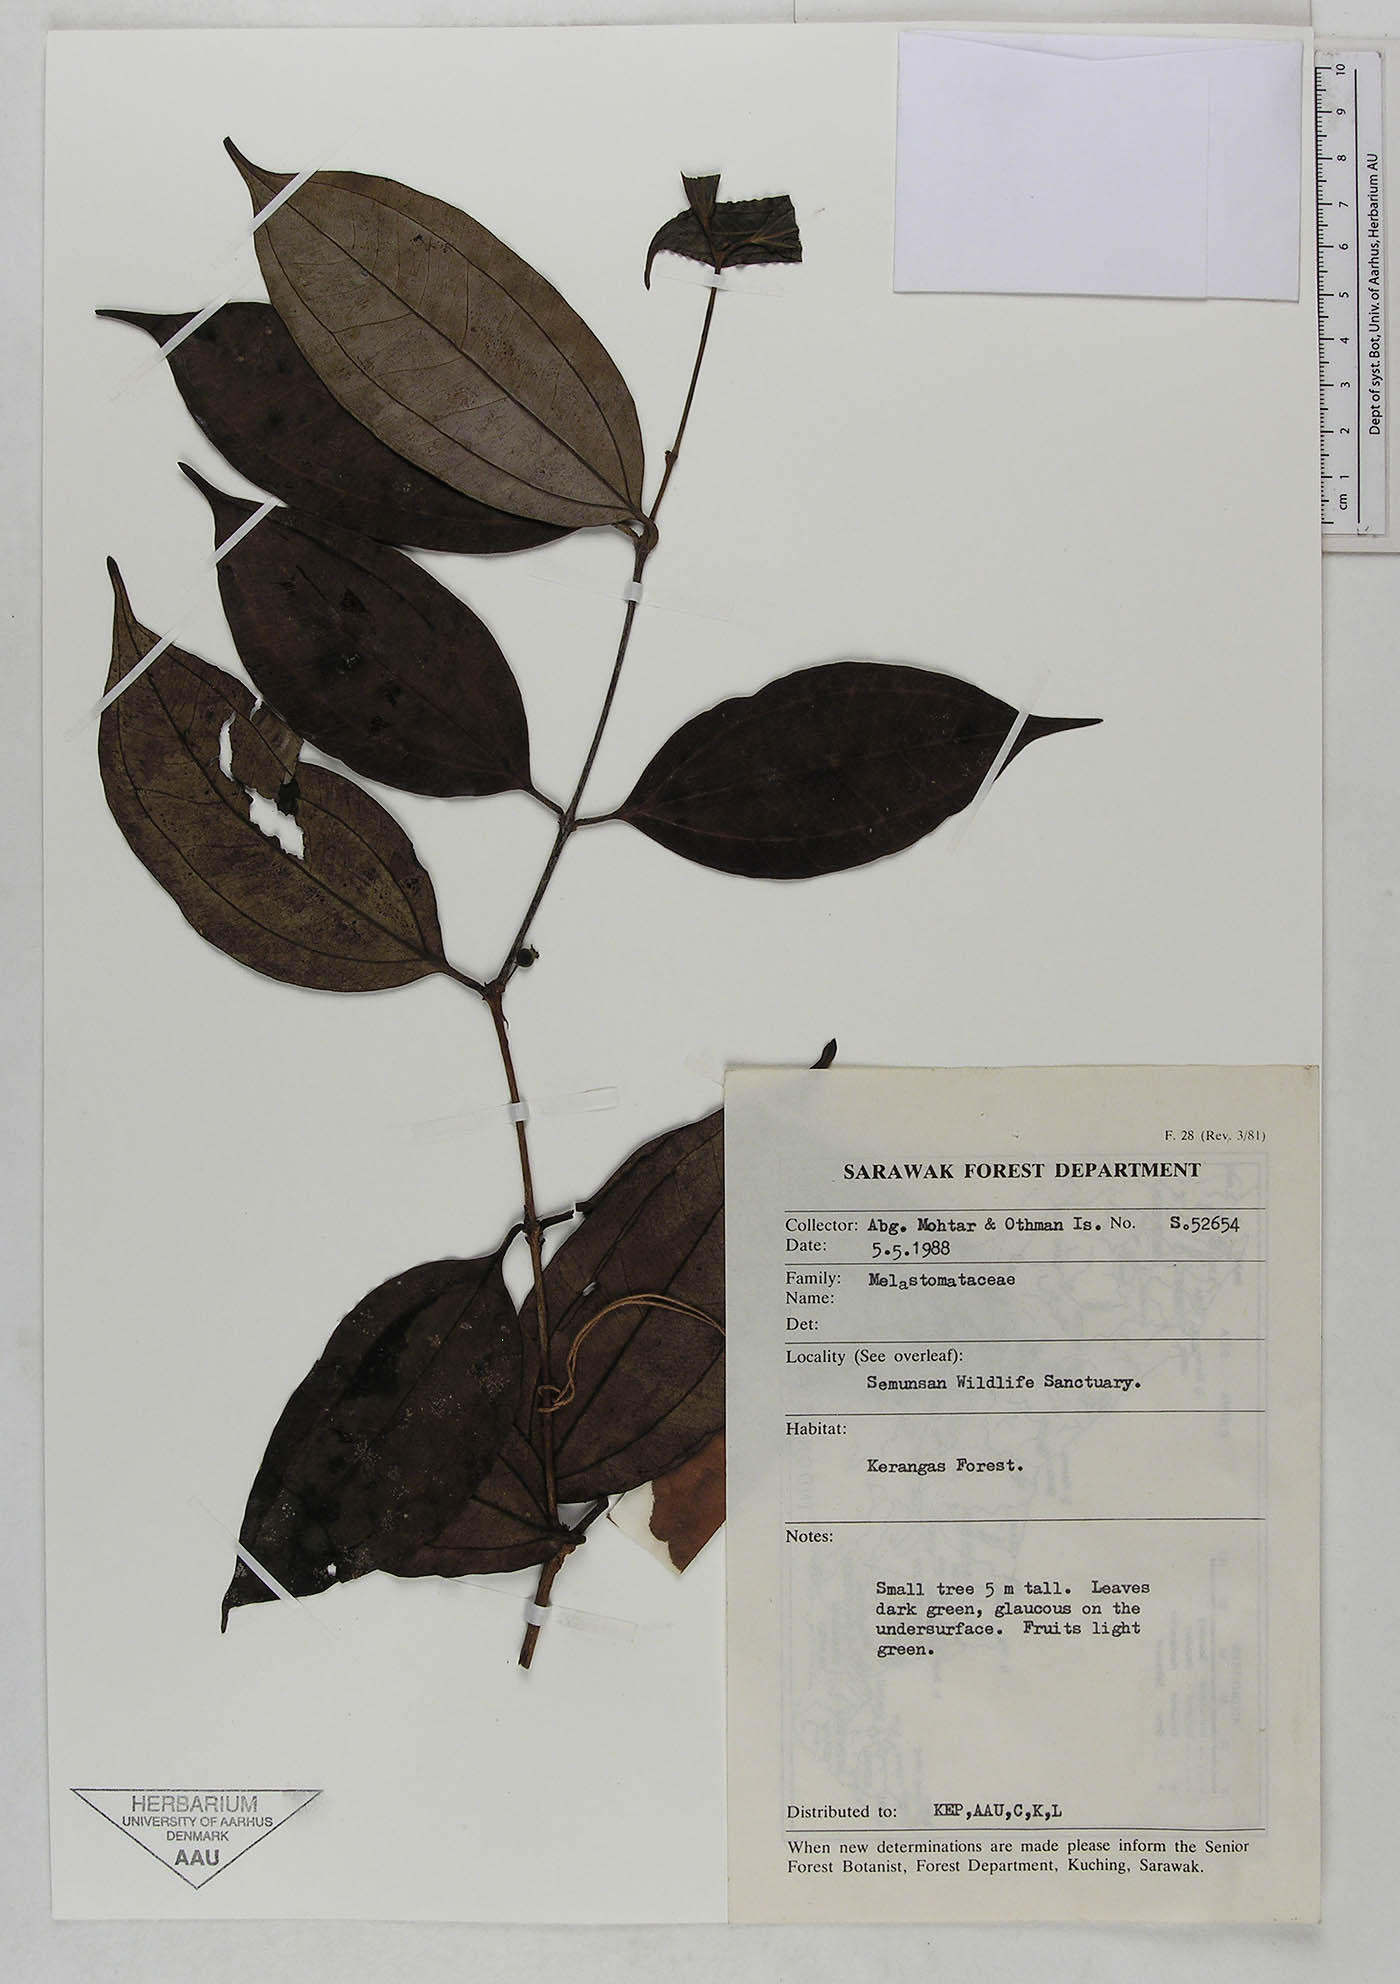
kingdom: Plantae
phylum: Tracheophyta
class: Magnoliopsida
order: Myrtales
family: Melastomataceae
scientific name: Melastomataceae
